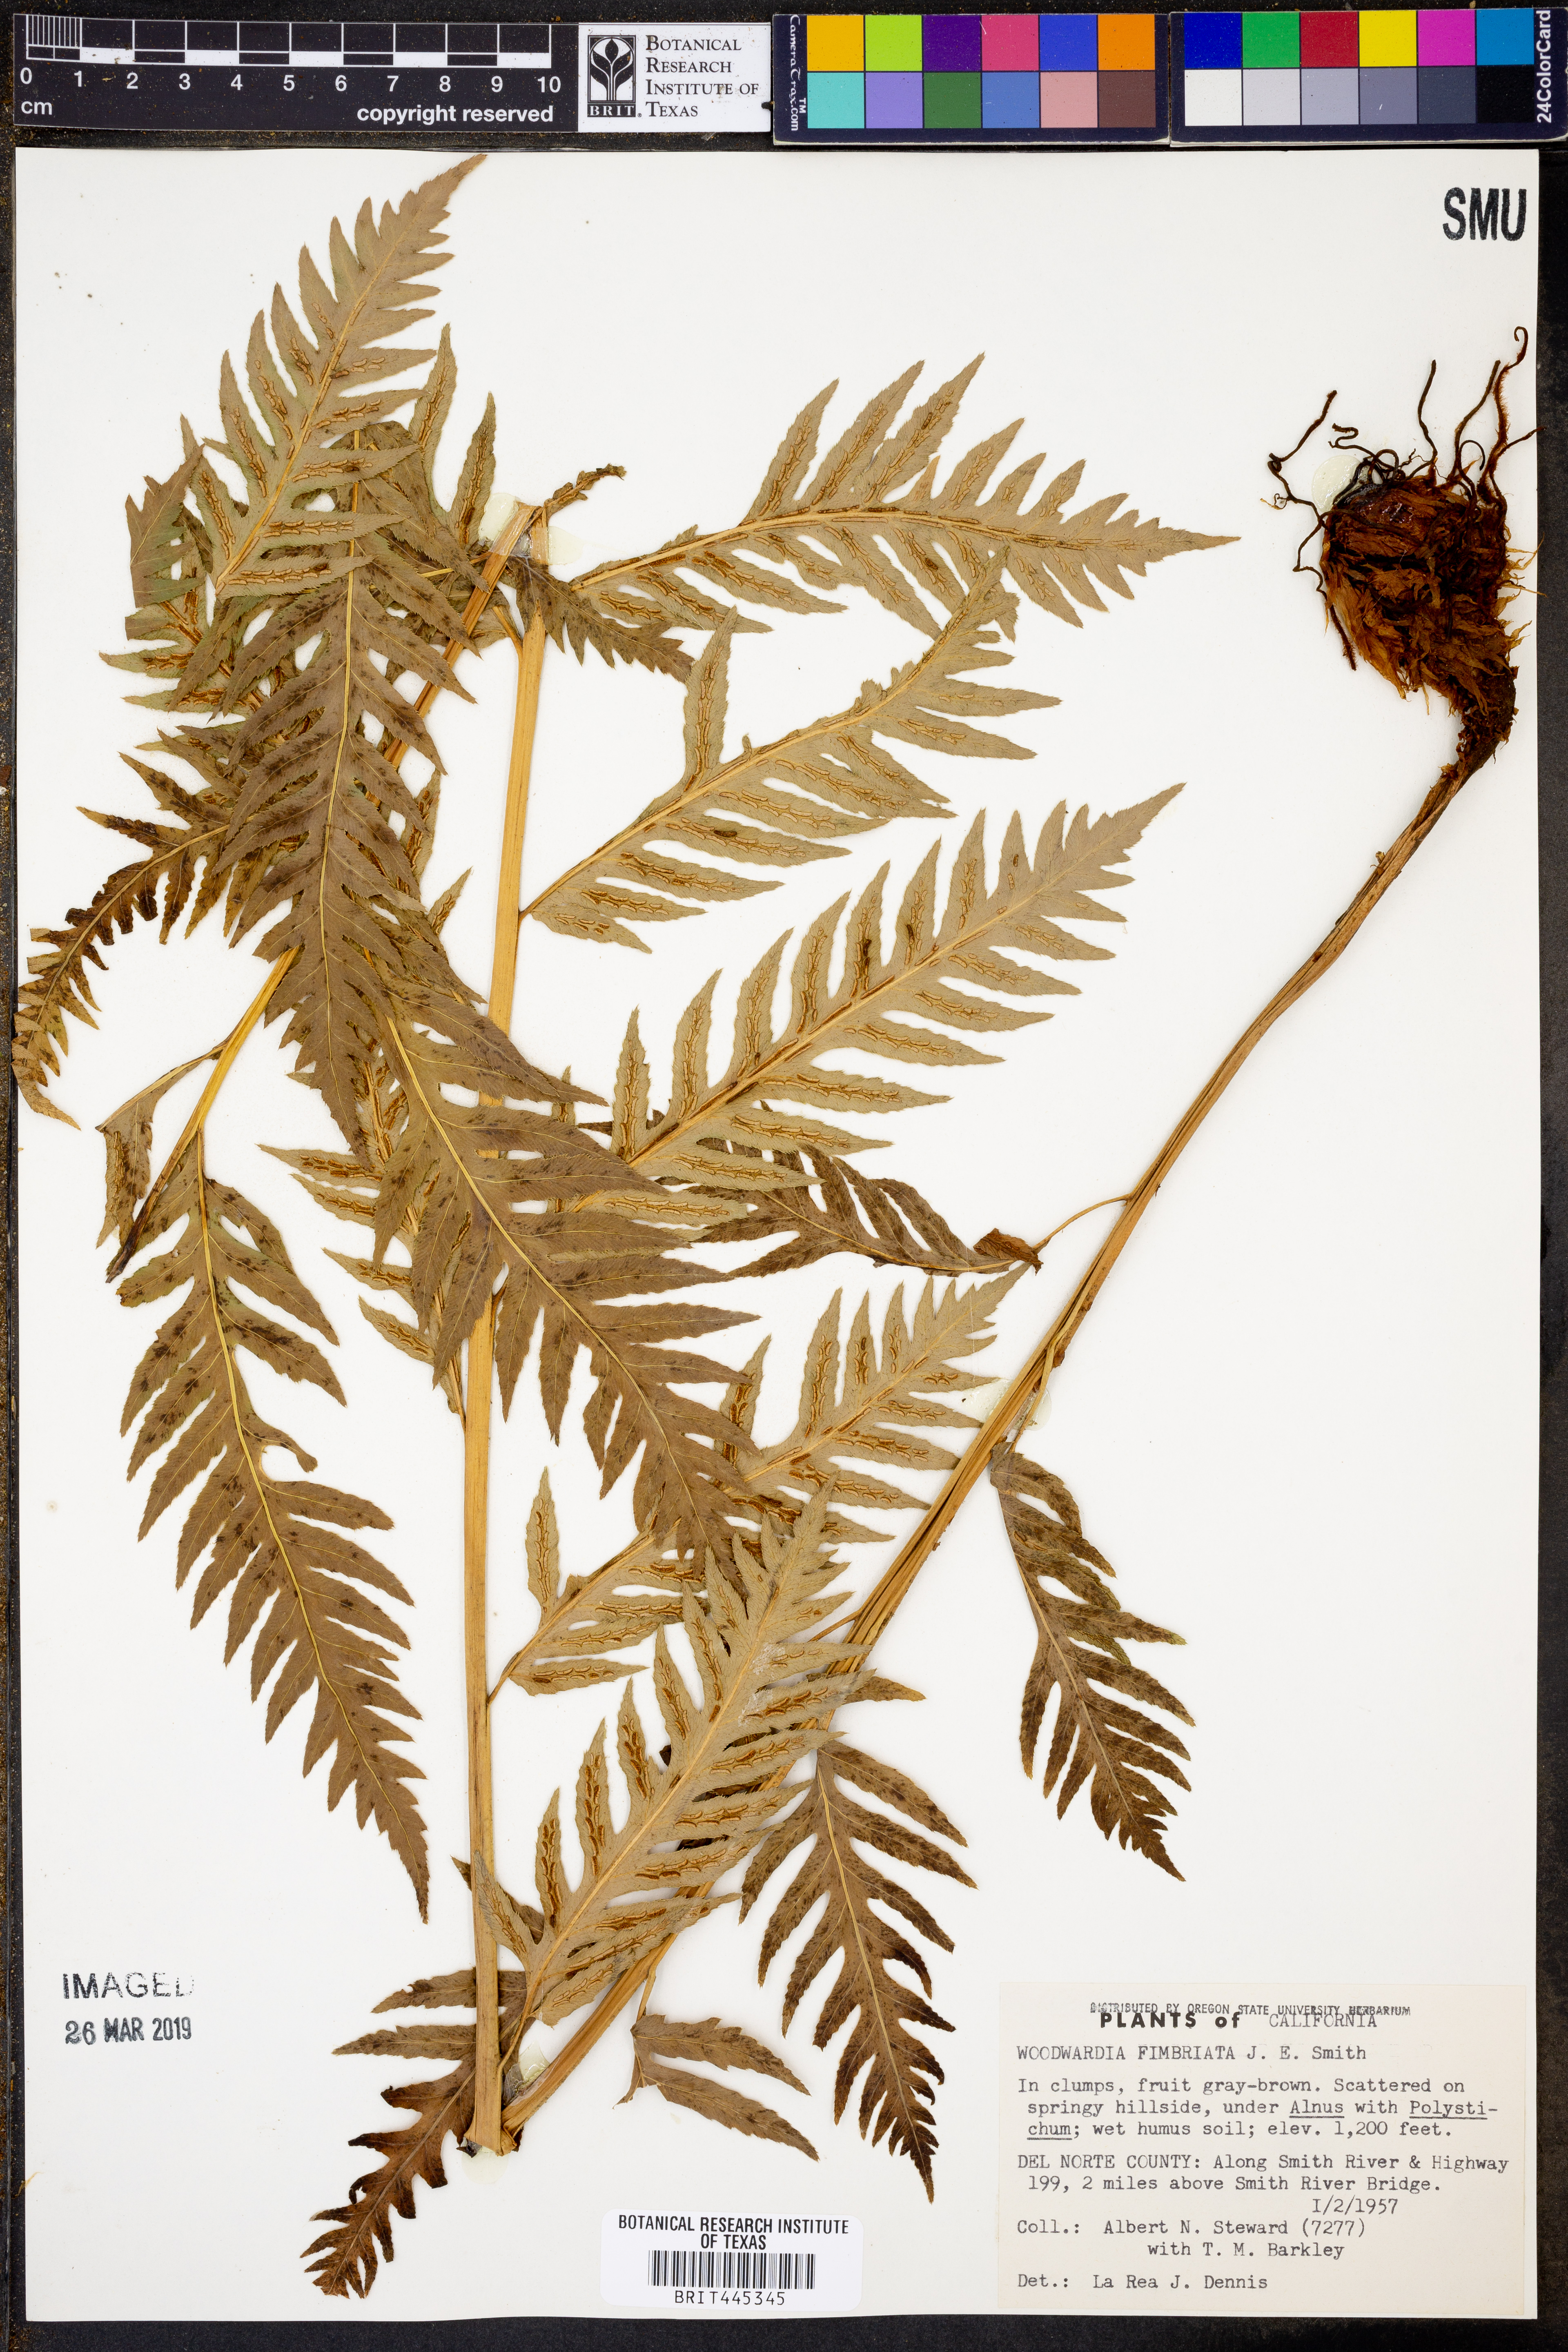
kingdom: Plantae
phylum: Tracheophyta
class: Polypodiopsida
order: Polypodiales
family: Blechnaceae
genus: Woodwardia
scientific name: Woodwardia fimbriata
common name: Giant chain fern
